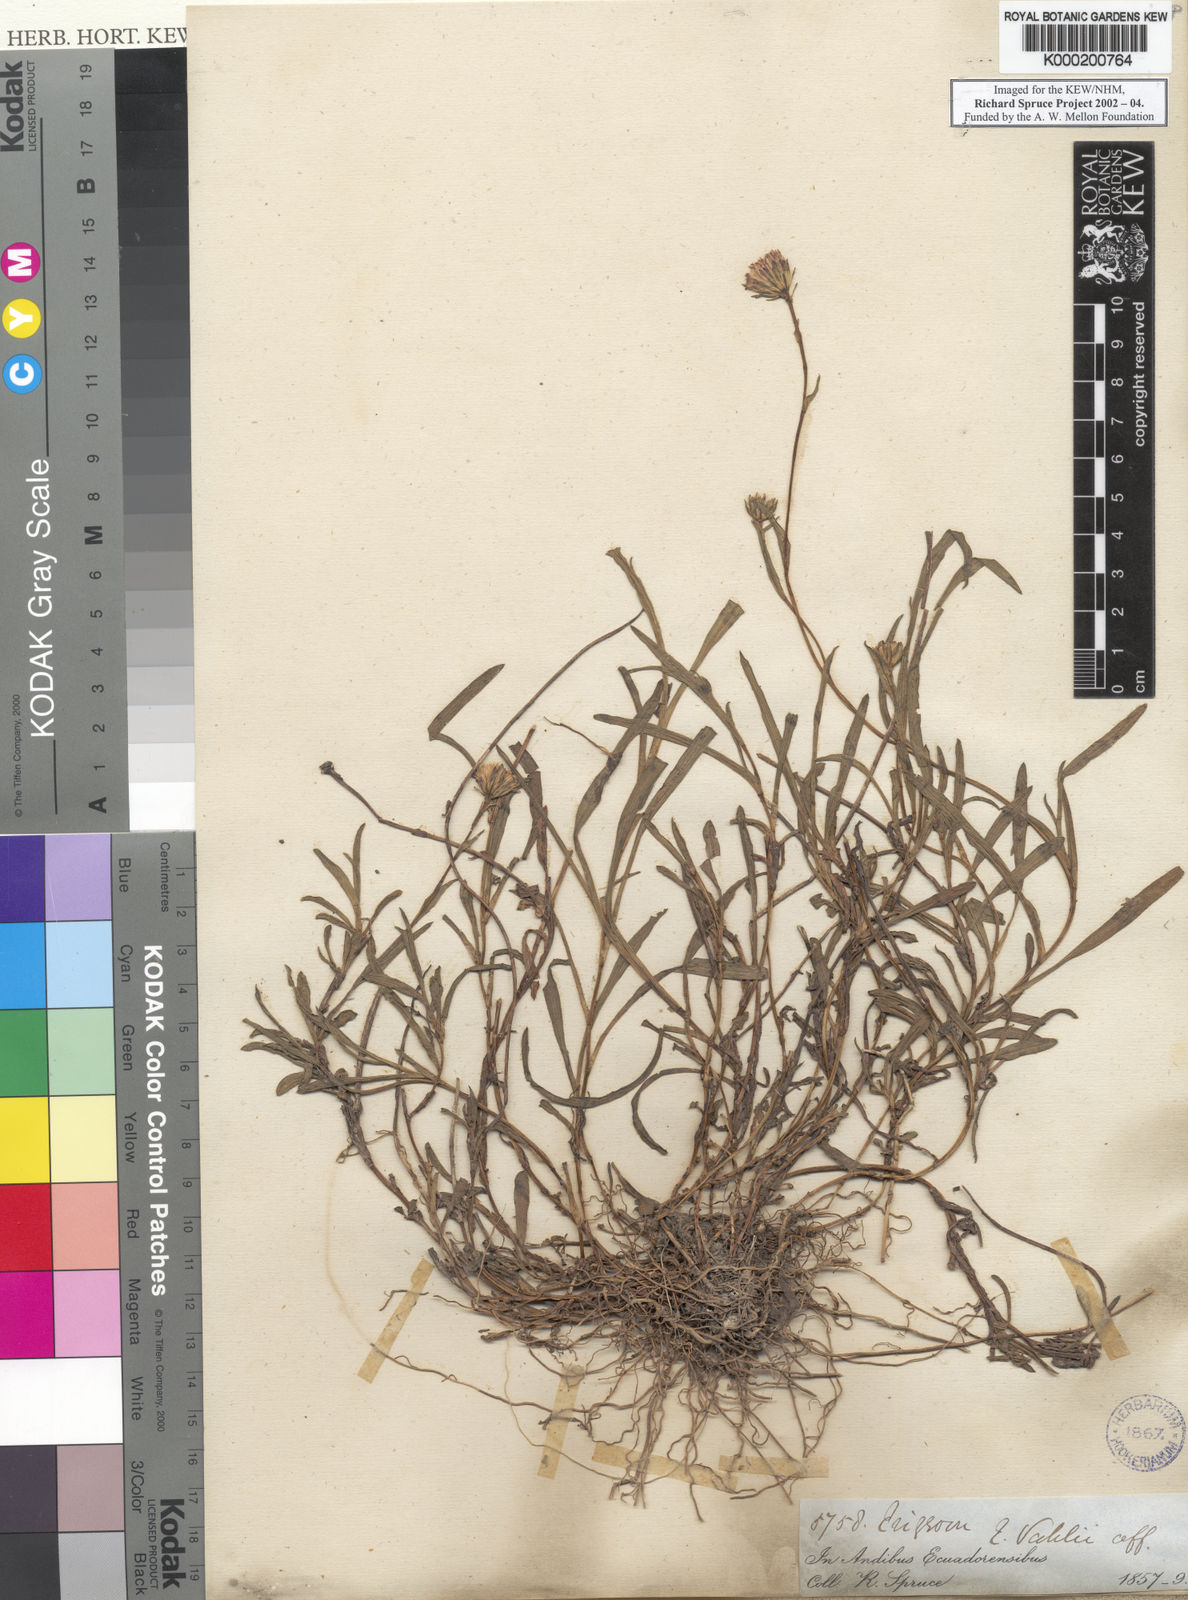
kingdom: Plantae
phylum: Tracheophyta
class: Magnoliopsida
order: Asterales
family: Asteraceae
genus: Erigeron
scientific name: Erigeron
